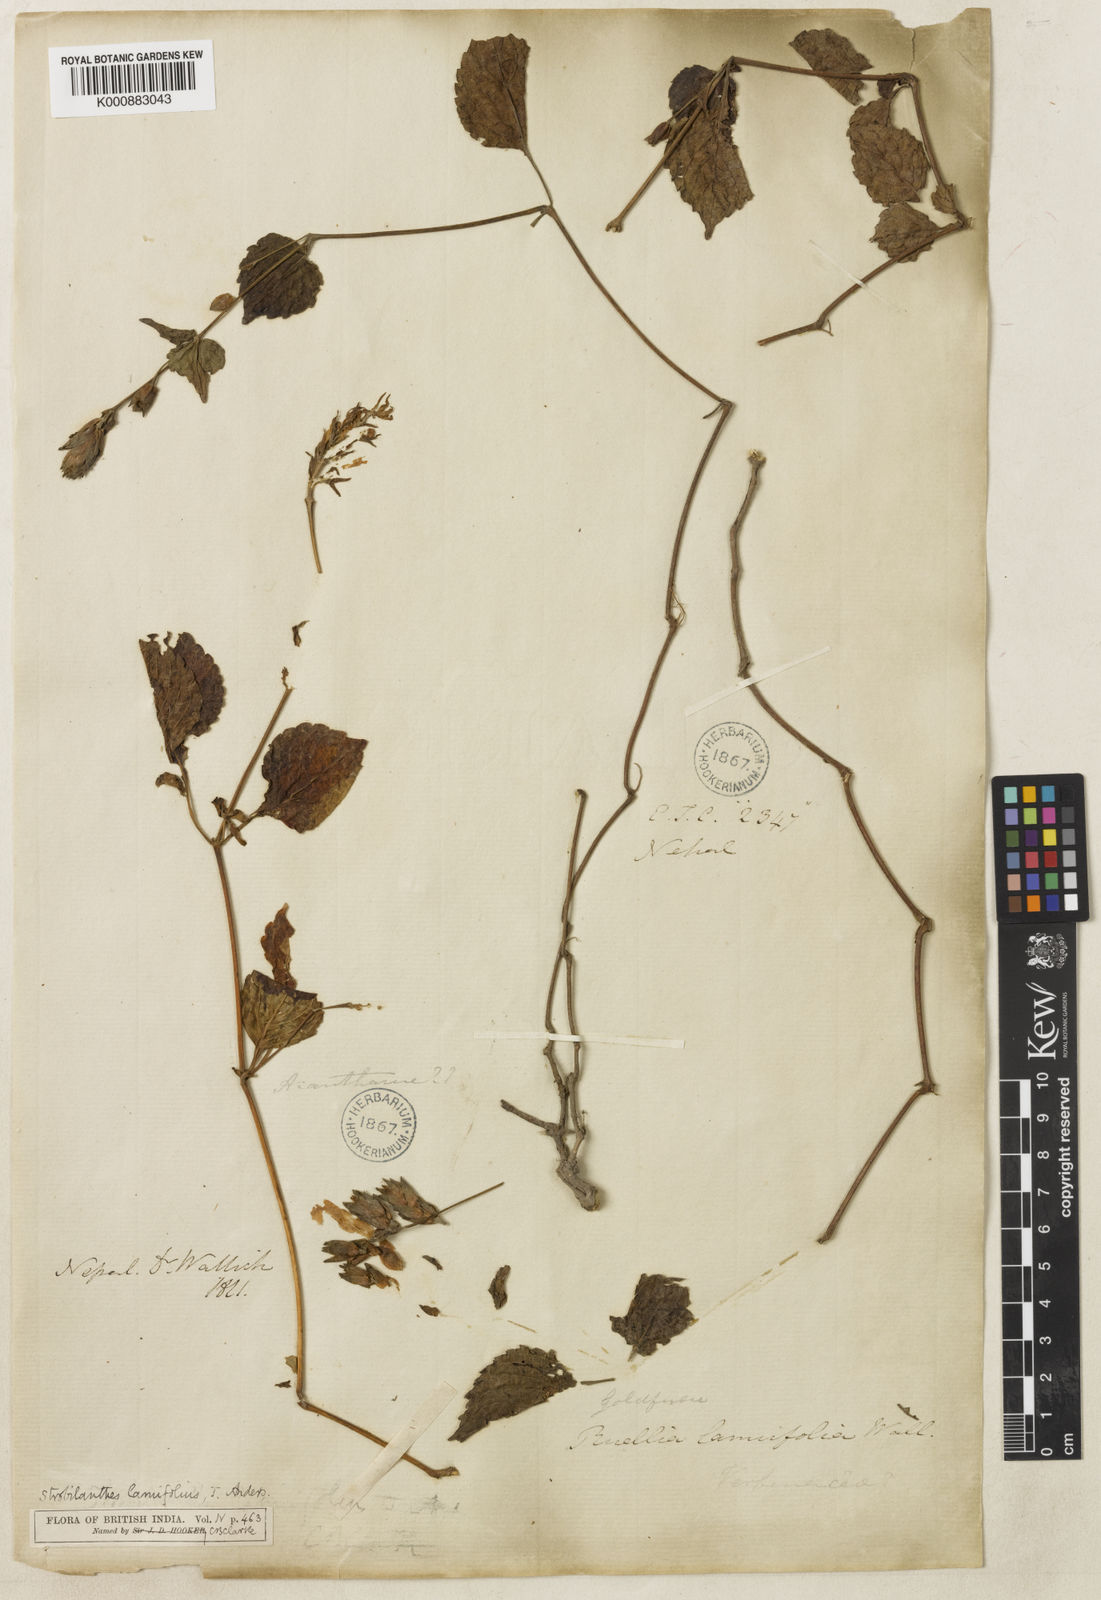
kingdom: Plantae
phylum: Tracheophyta
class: Magnoliopsida
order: Lamiales
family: Acanthaceae
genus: Strobilanthes
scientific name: Strobilanthes lamiifolia
